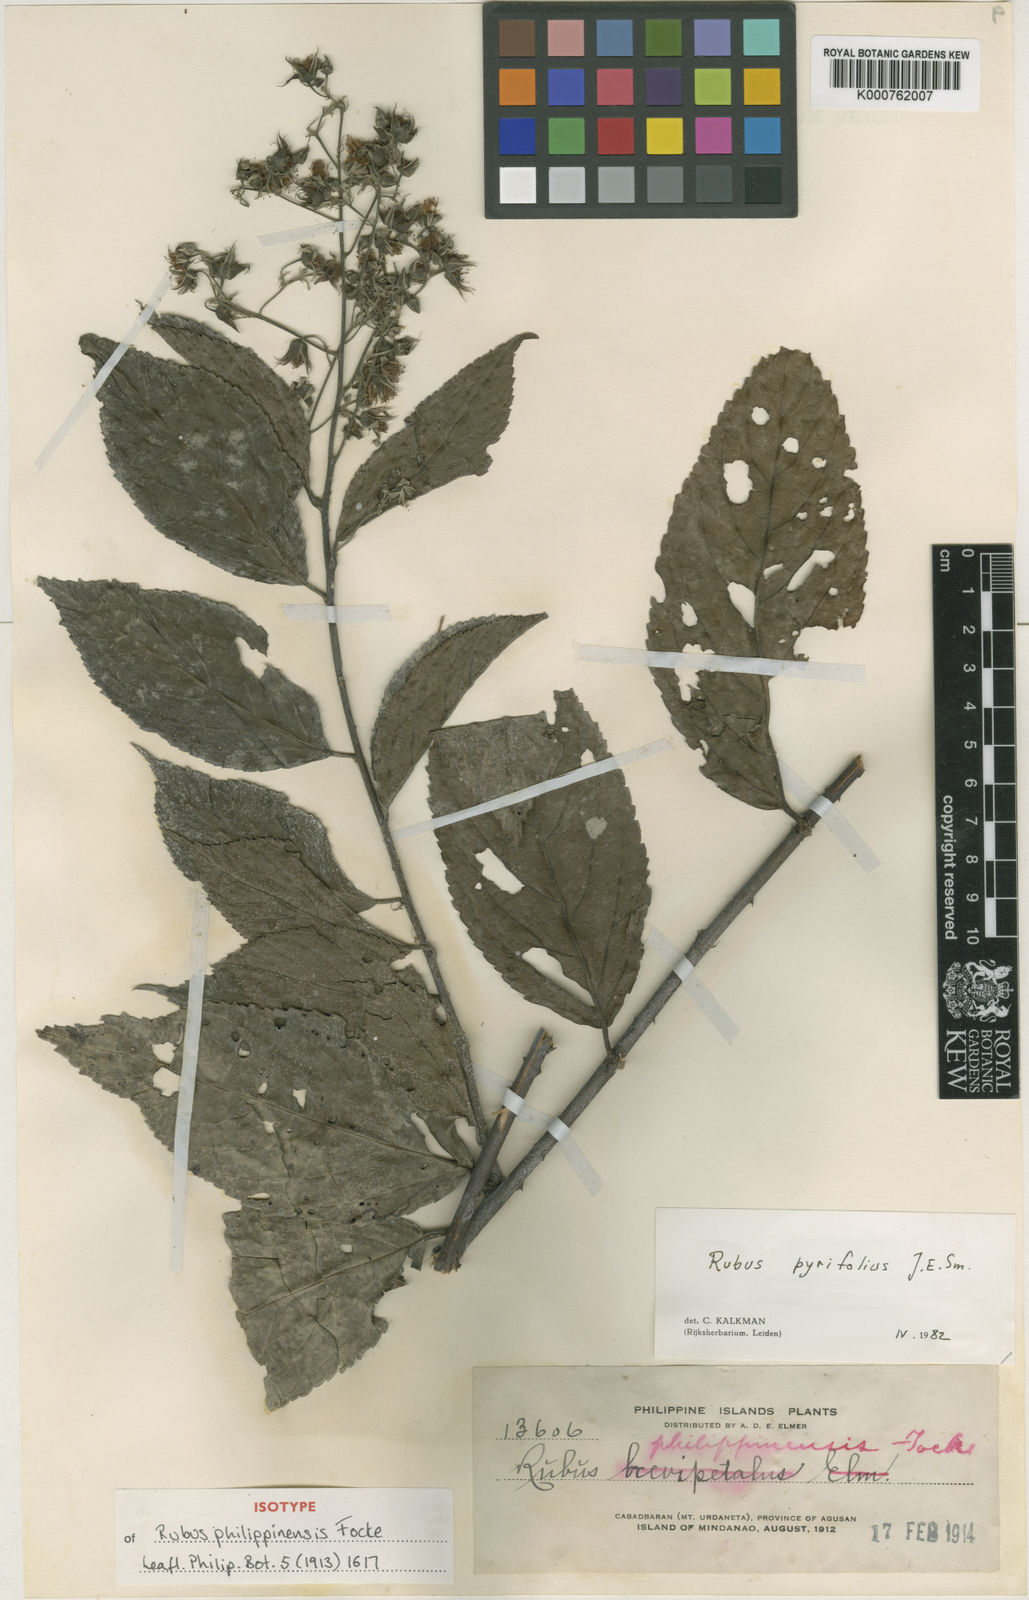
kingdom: Plantae
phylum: Tracheophyta
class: Magnoliopsida
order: Rosales
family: Rosaceae
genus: Rubus
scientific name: Rubus pirifolius
